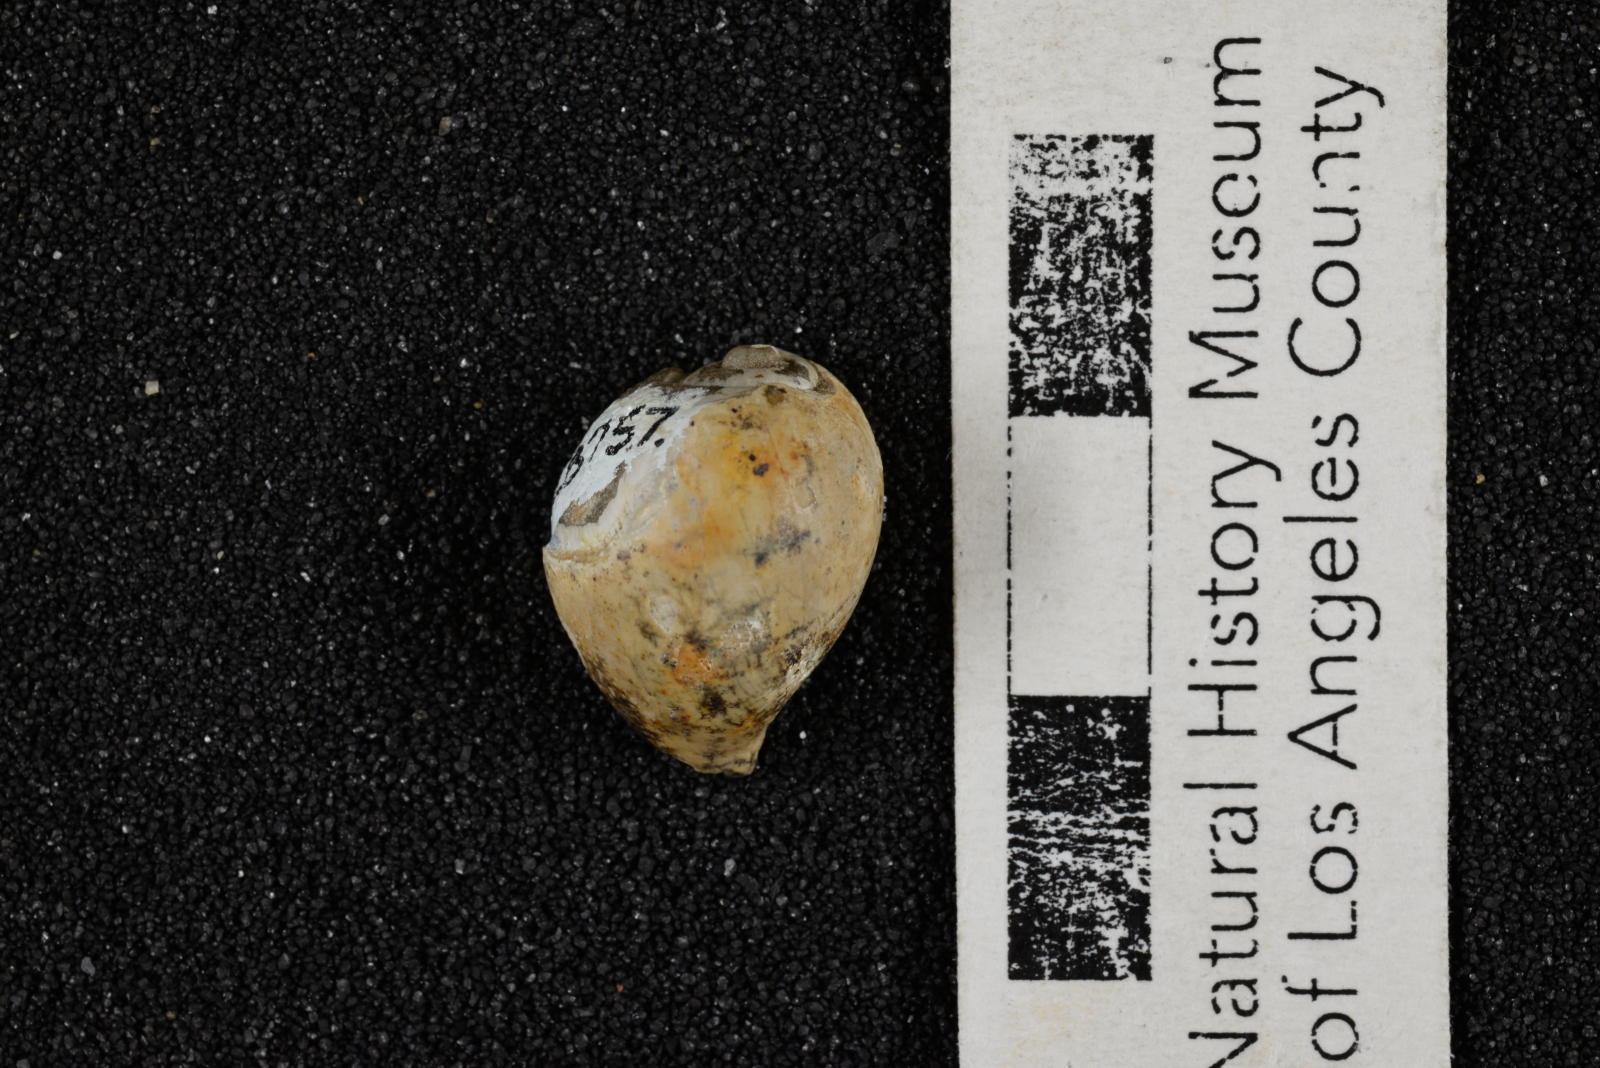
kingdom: Animalia
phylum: Mollusca
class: Gastropoda
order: Littorinimorpha
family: Eocypraeidae
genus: Eocypraea
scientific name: Eocypraea louellae
